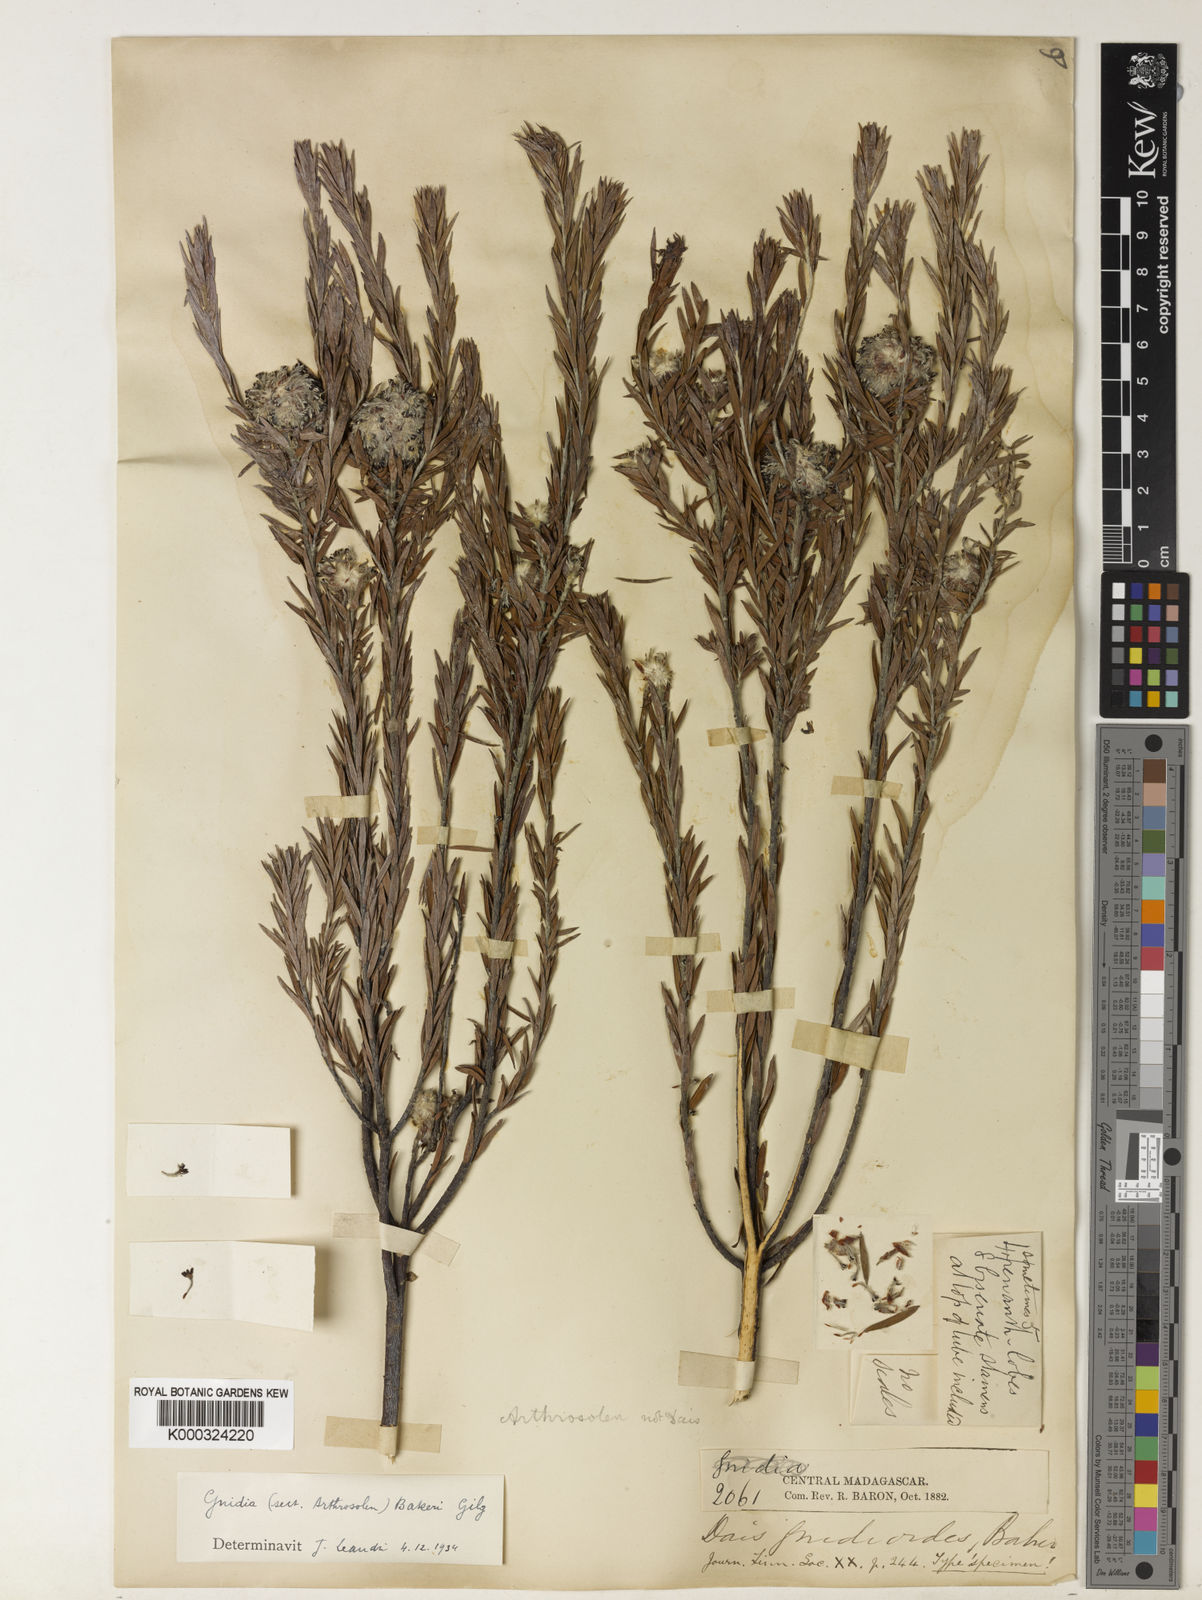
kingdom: Plantae
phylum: Tracheophyta
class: Magnoliopsida
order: Malvales
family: Thymelaeaceae
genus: Gnidia
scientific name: Gnidia gnidioides
